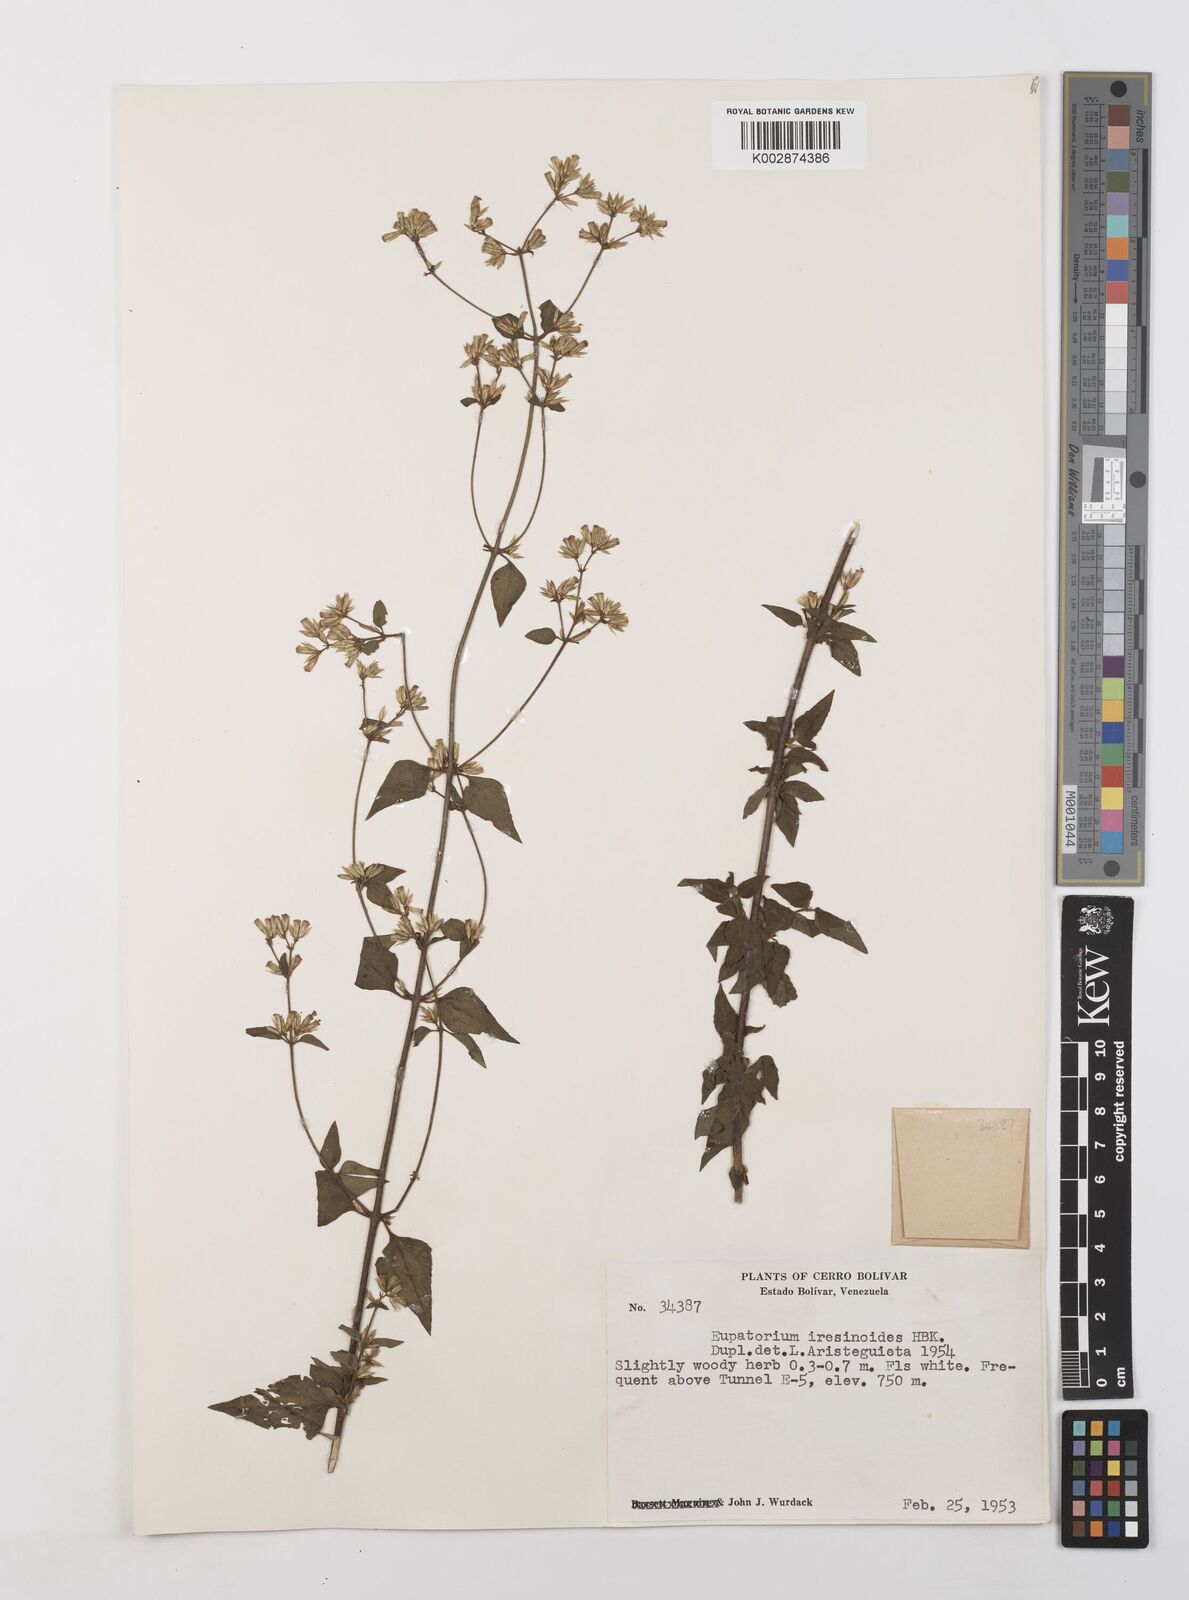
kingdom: Plantae
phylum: Tracheophyta
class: Magnoliopsida
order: Asterales
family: Asteraceae
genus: Condylidium
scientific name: Condylidium iresinoides
